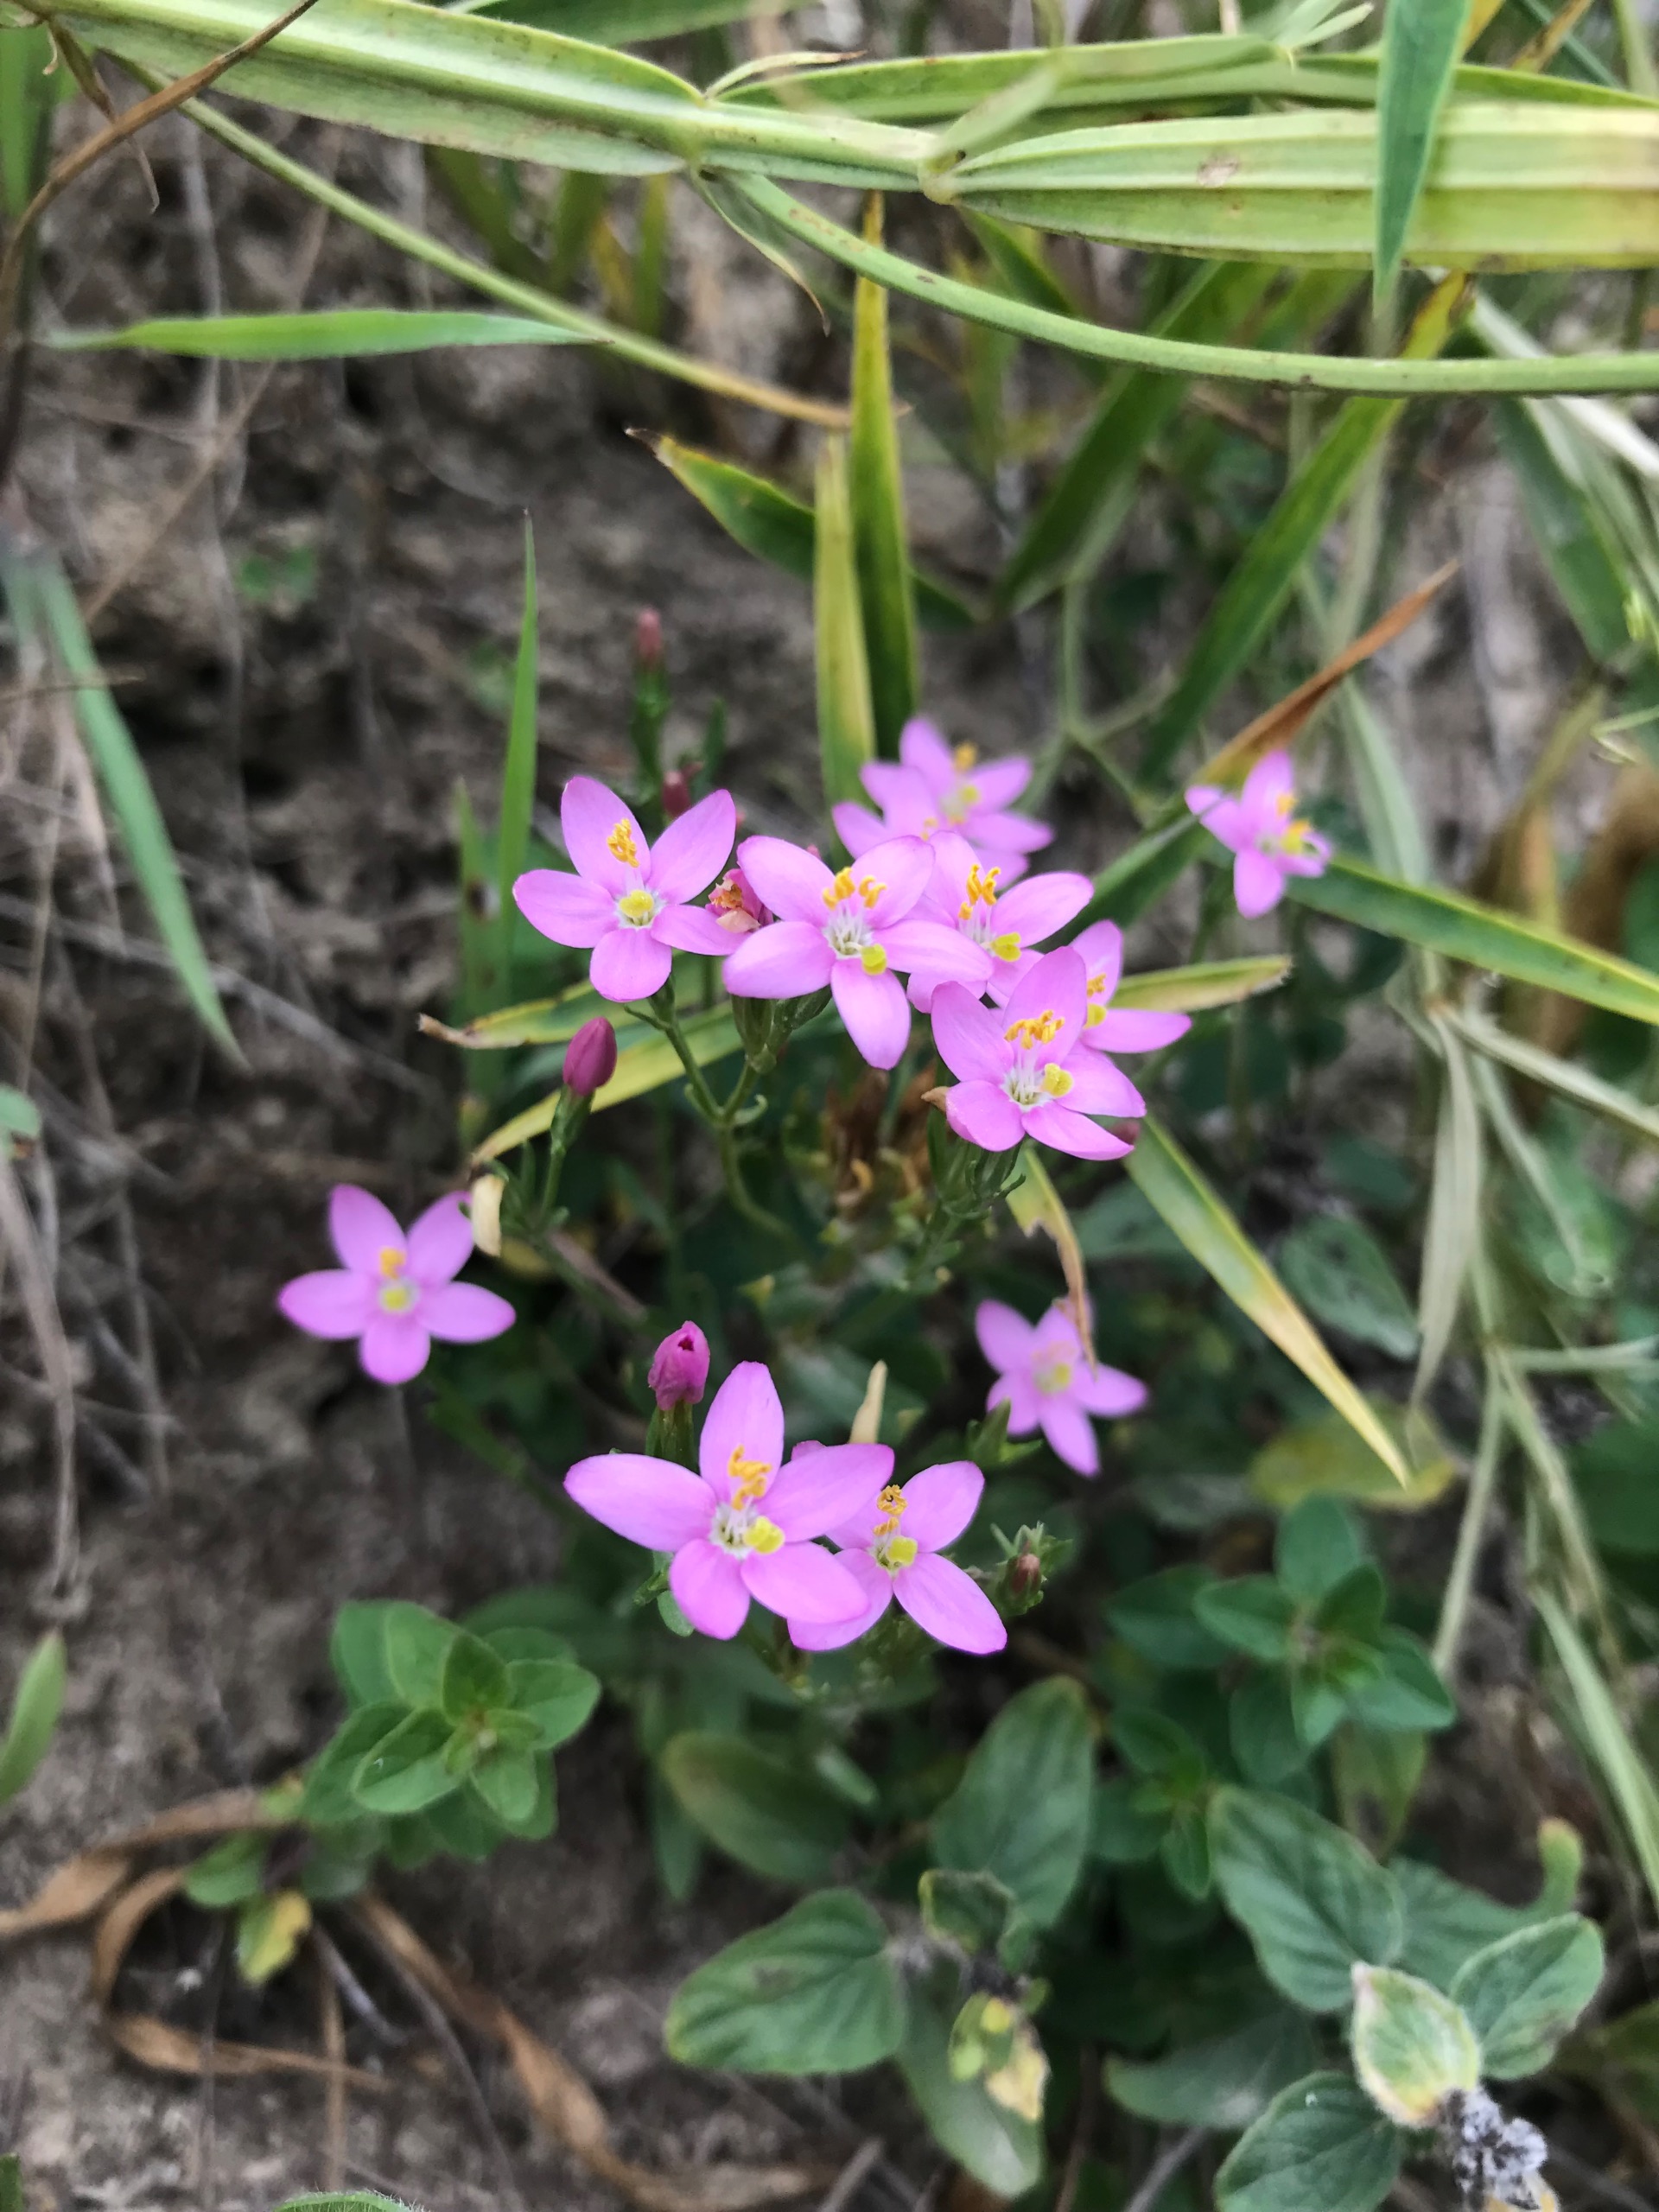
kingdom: Plantae
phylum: Tracheophyta
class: Magnoliopsida
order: Gentianales
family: Gentianaceae
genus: Centaurium
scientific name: Centaurium erythraea
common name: Mark-tusindgylden
